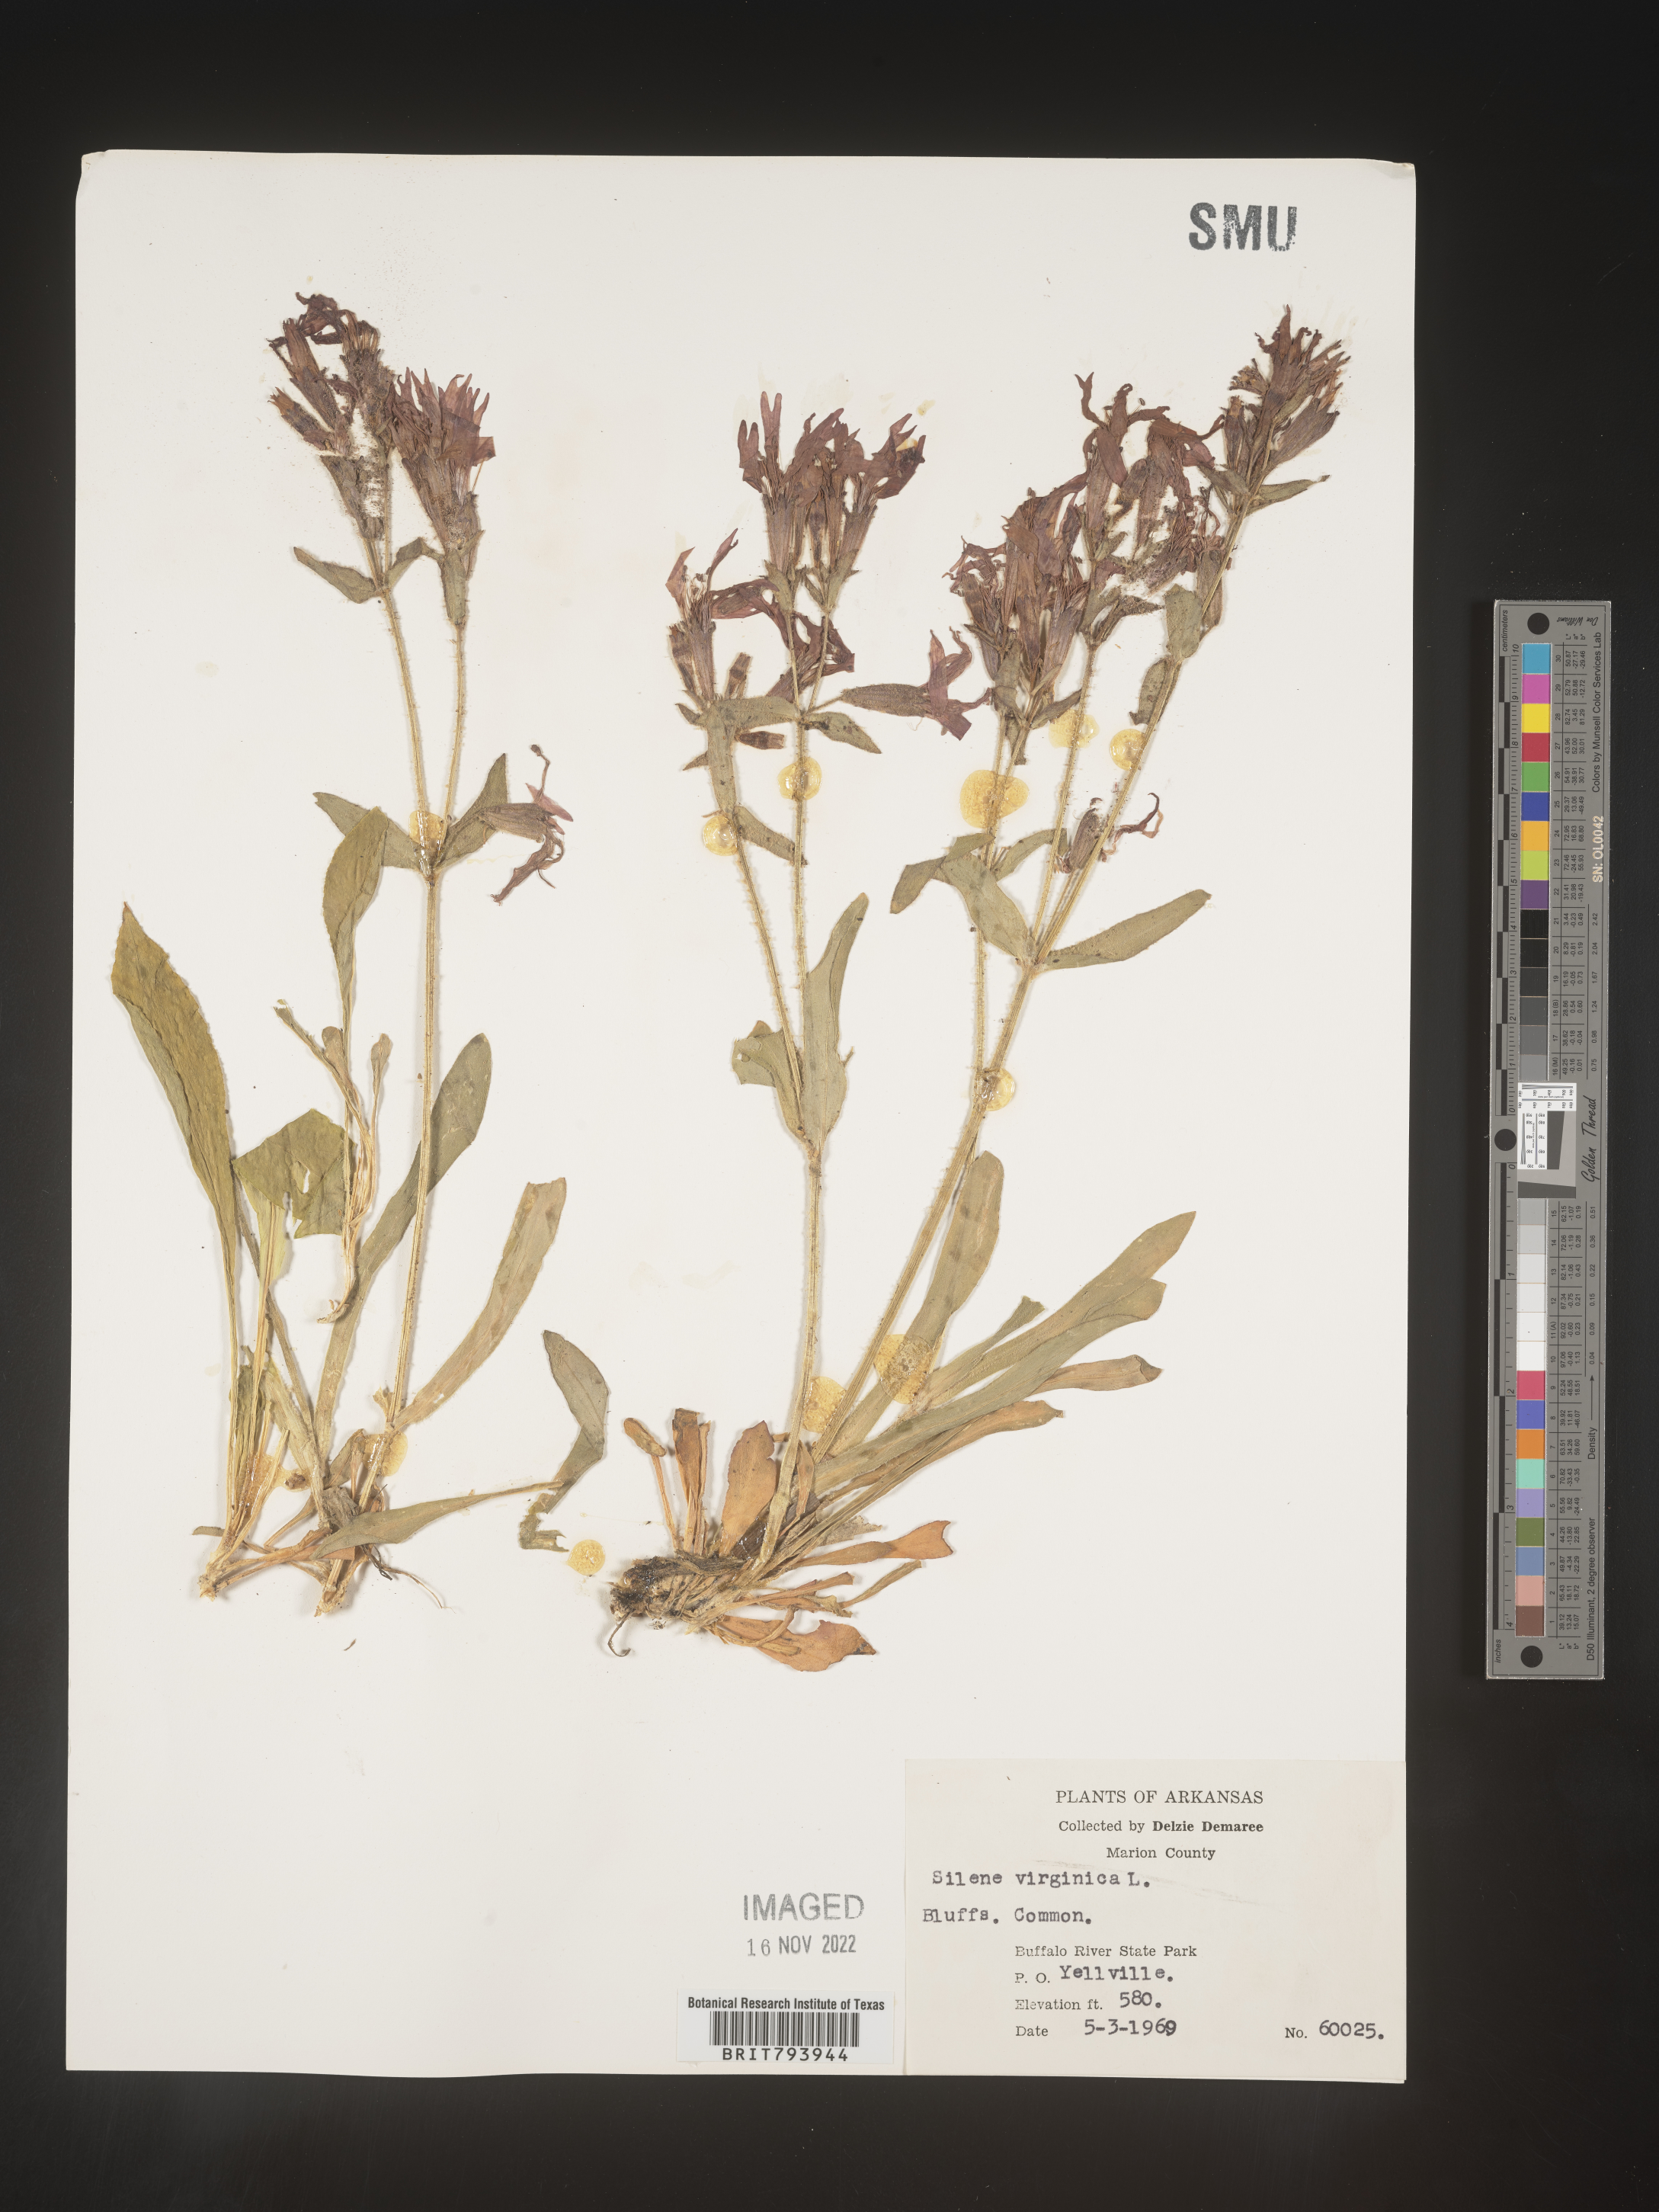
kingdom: Plantae
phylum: Tracheophyta
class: Magnoliopsida
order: Caryophyllales
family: Caryophyllaceae
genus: Silene
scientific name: Silene virginica
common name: Fire-pink
